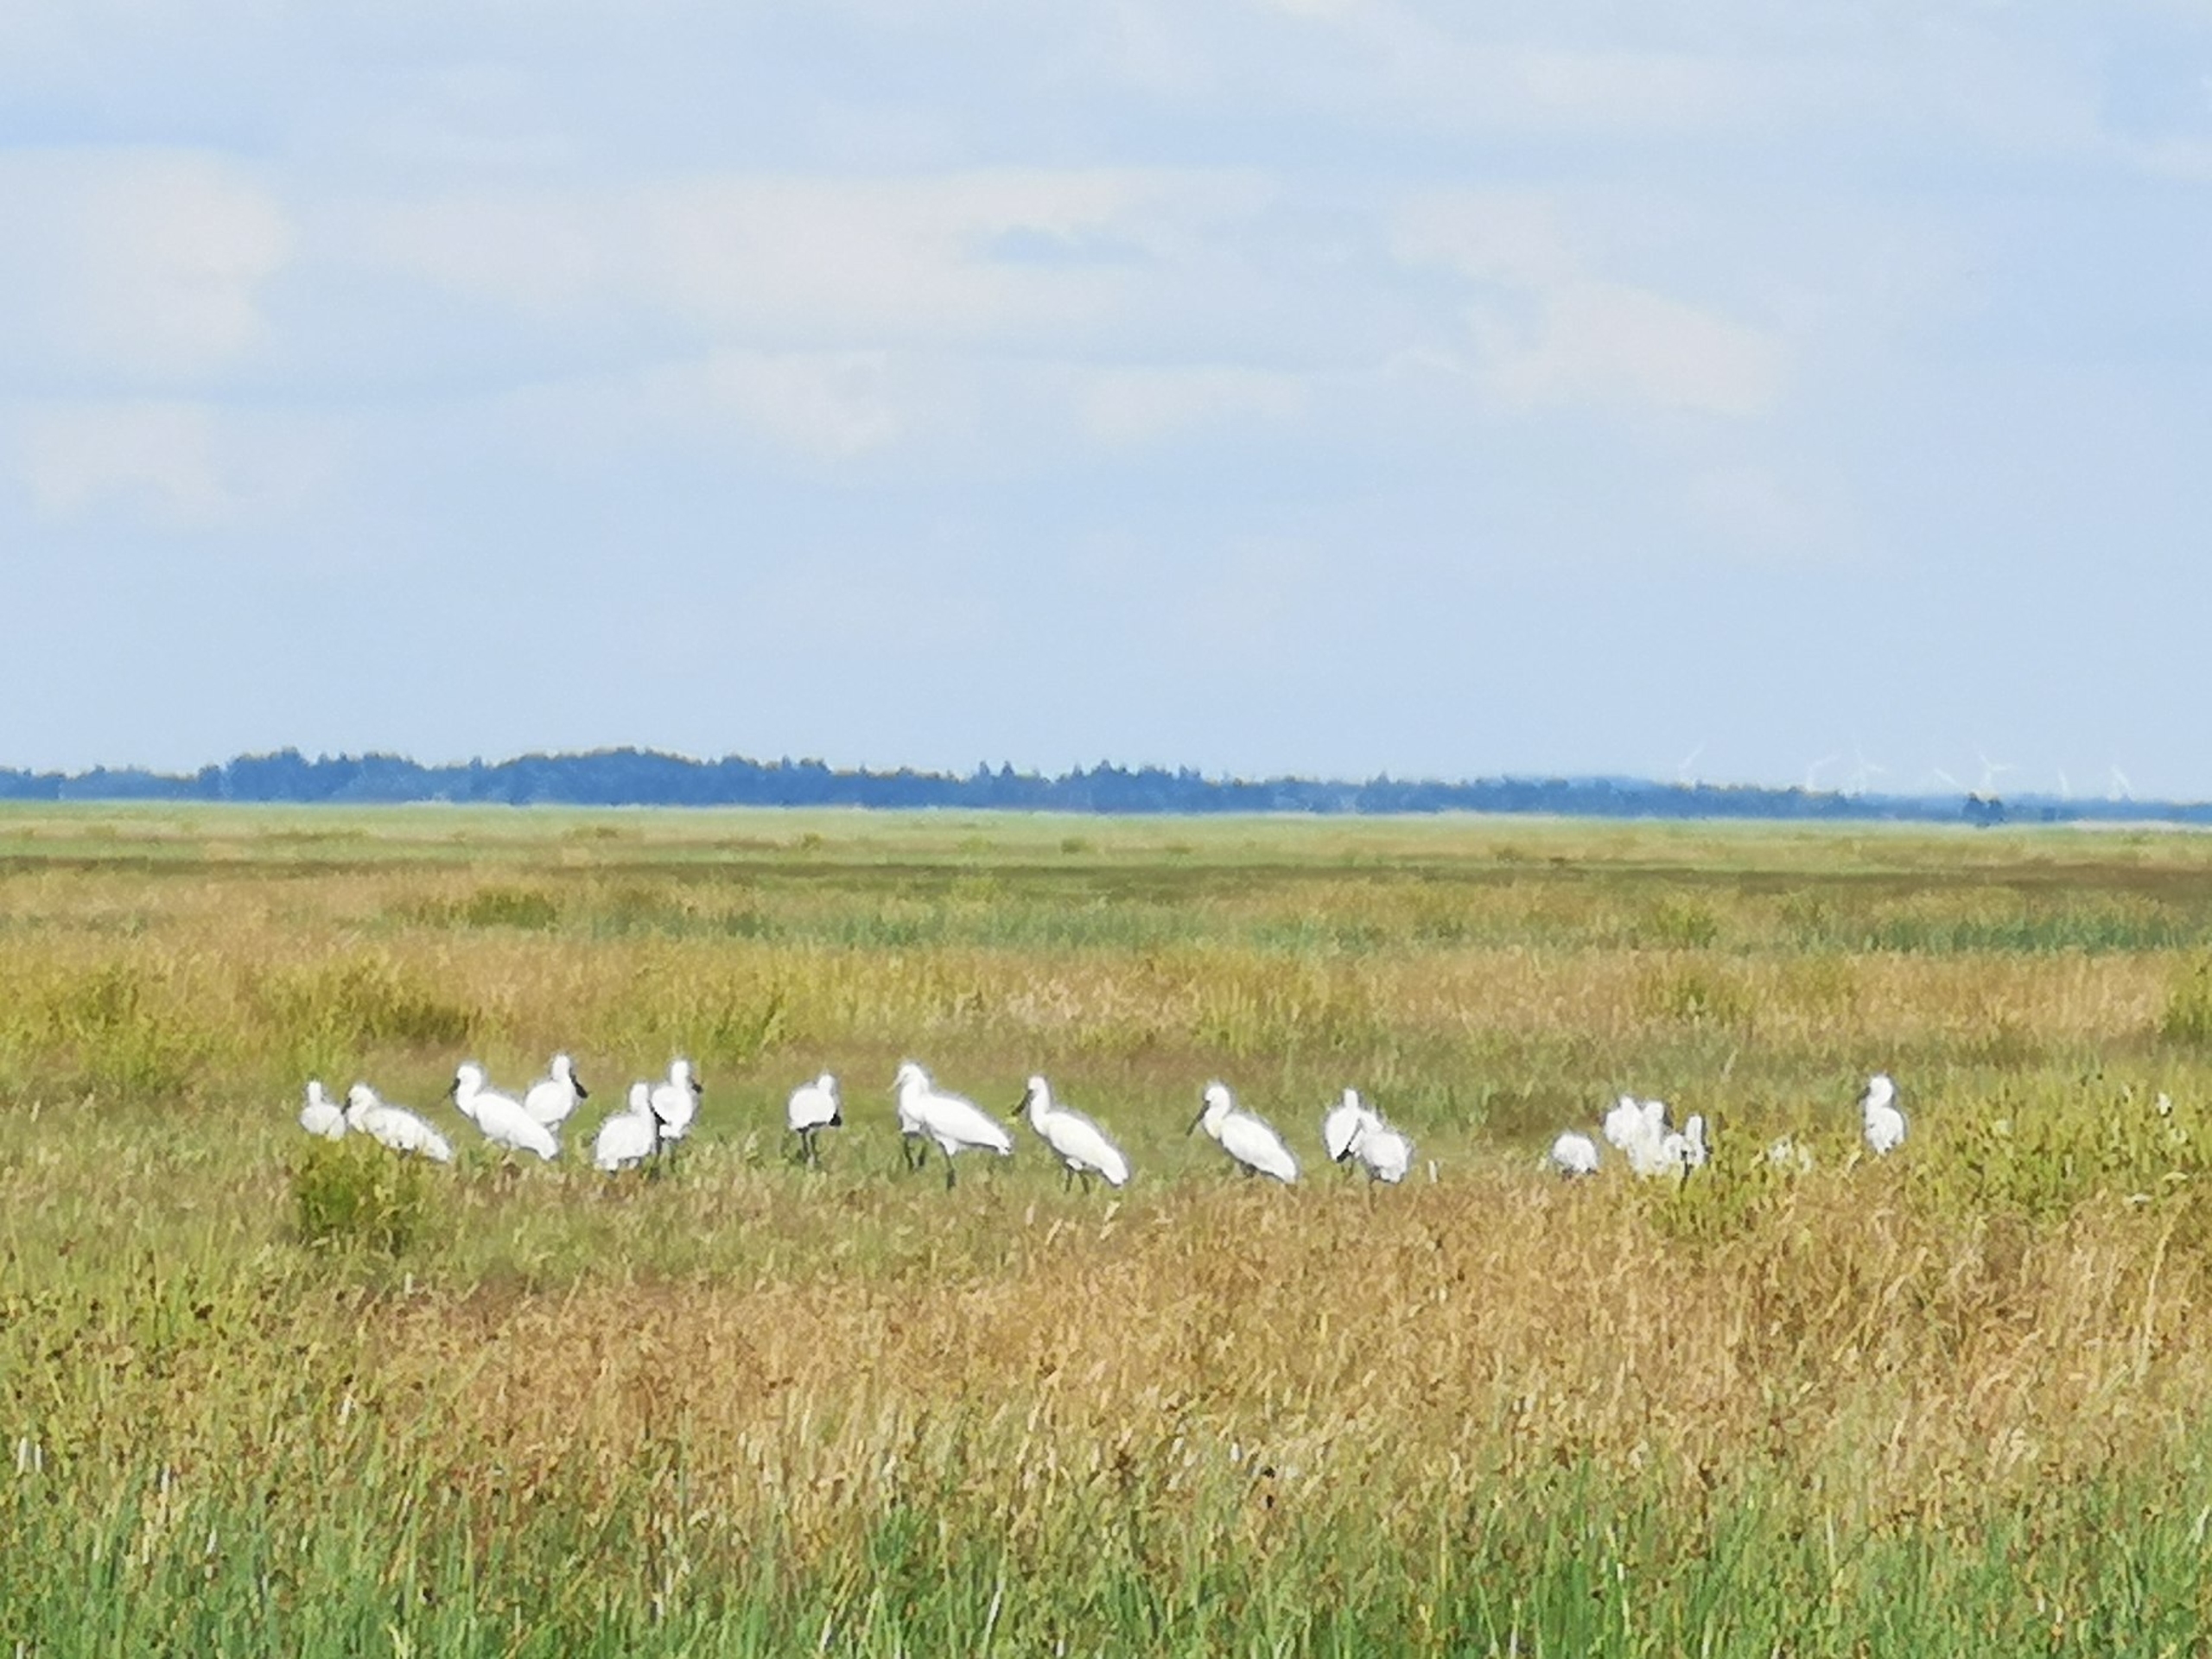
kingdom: Animalia
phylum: Chordata
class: Aves
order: Pelecaniformes
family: Threskiornithidae
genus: Platalea
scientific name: Platalea leucorodia
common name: Skestork
